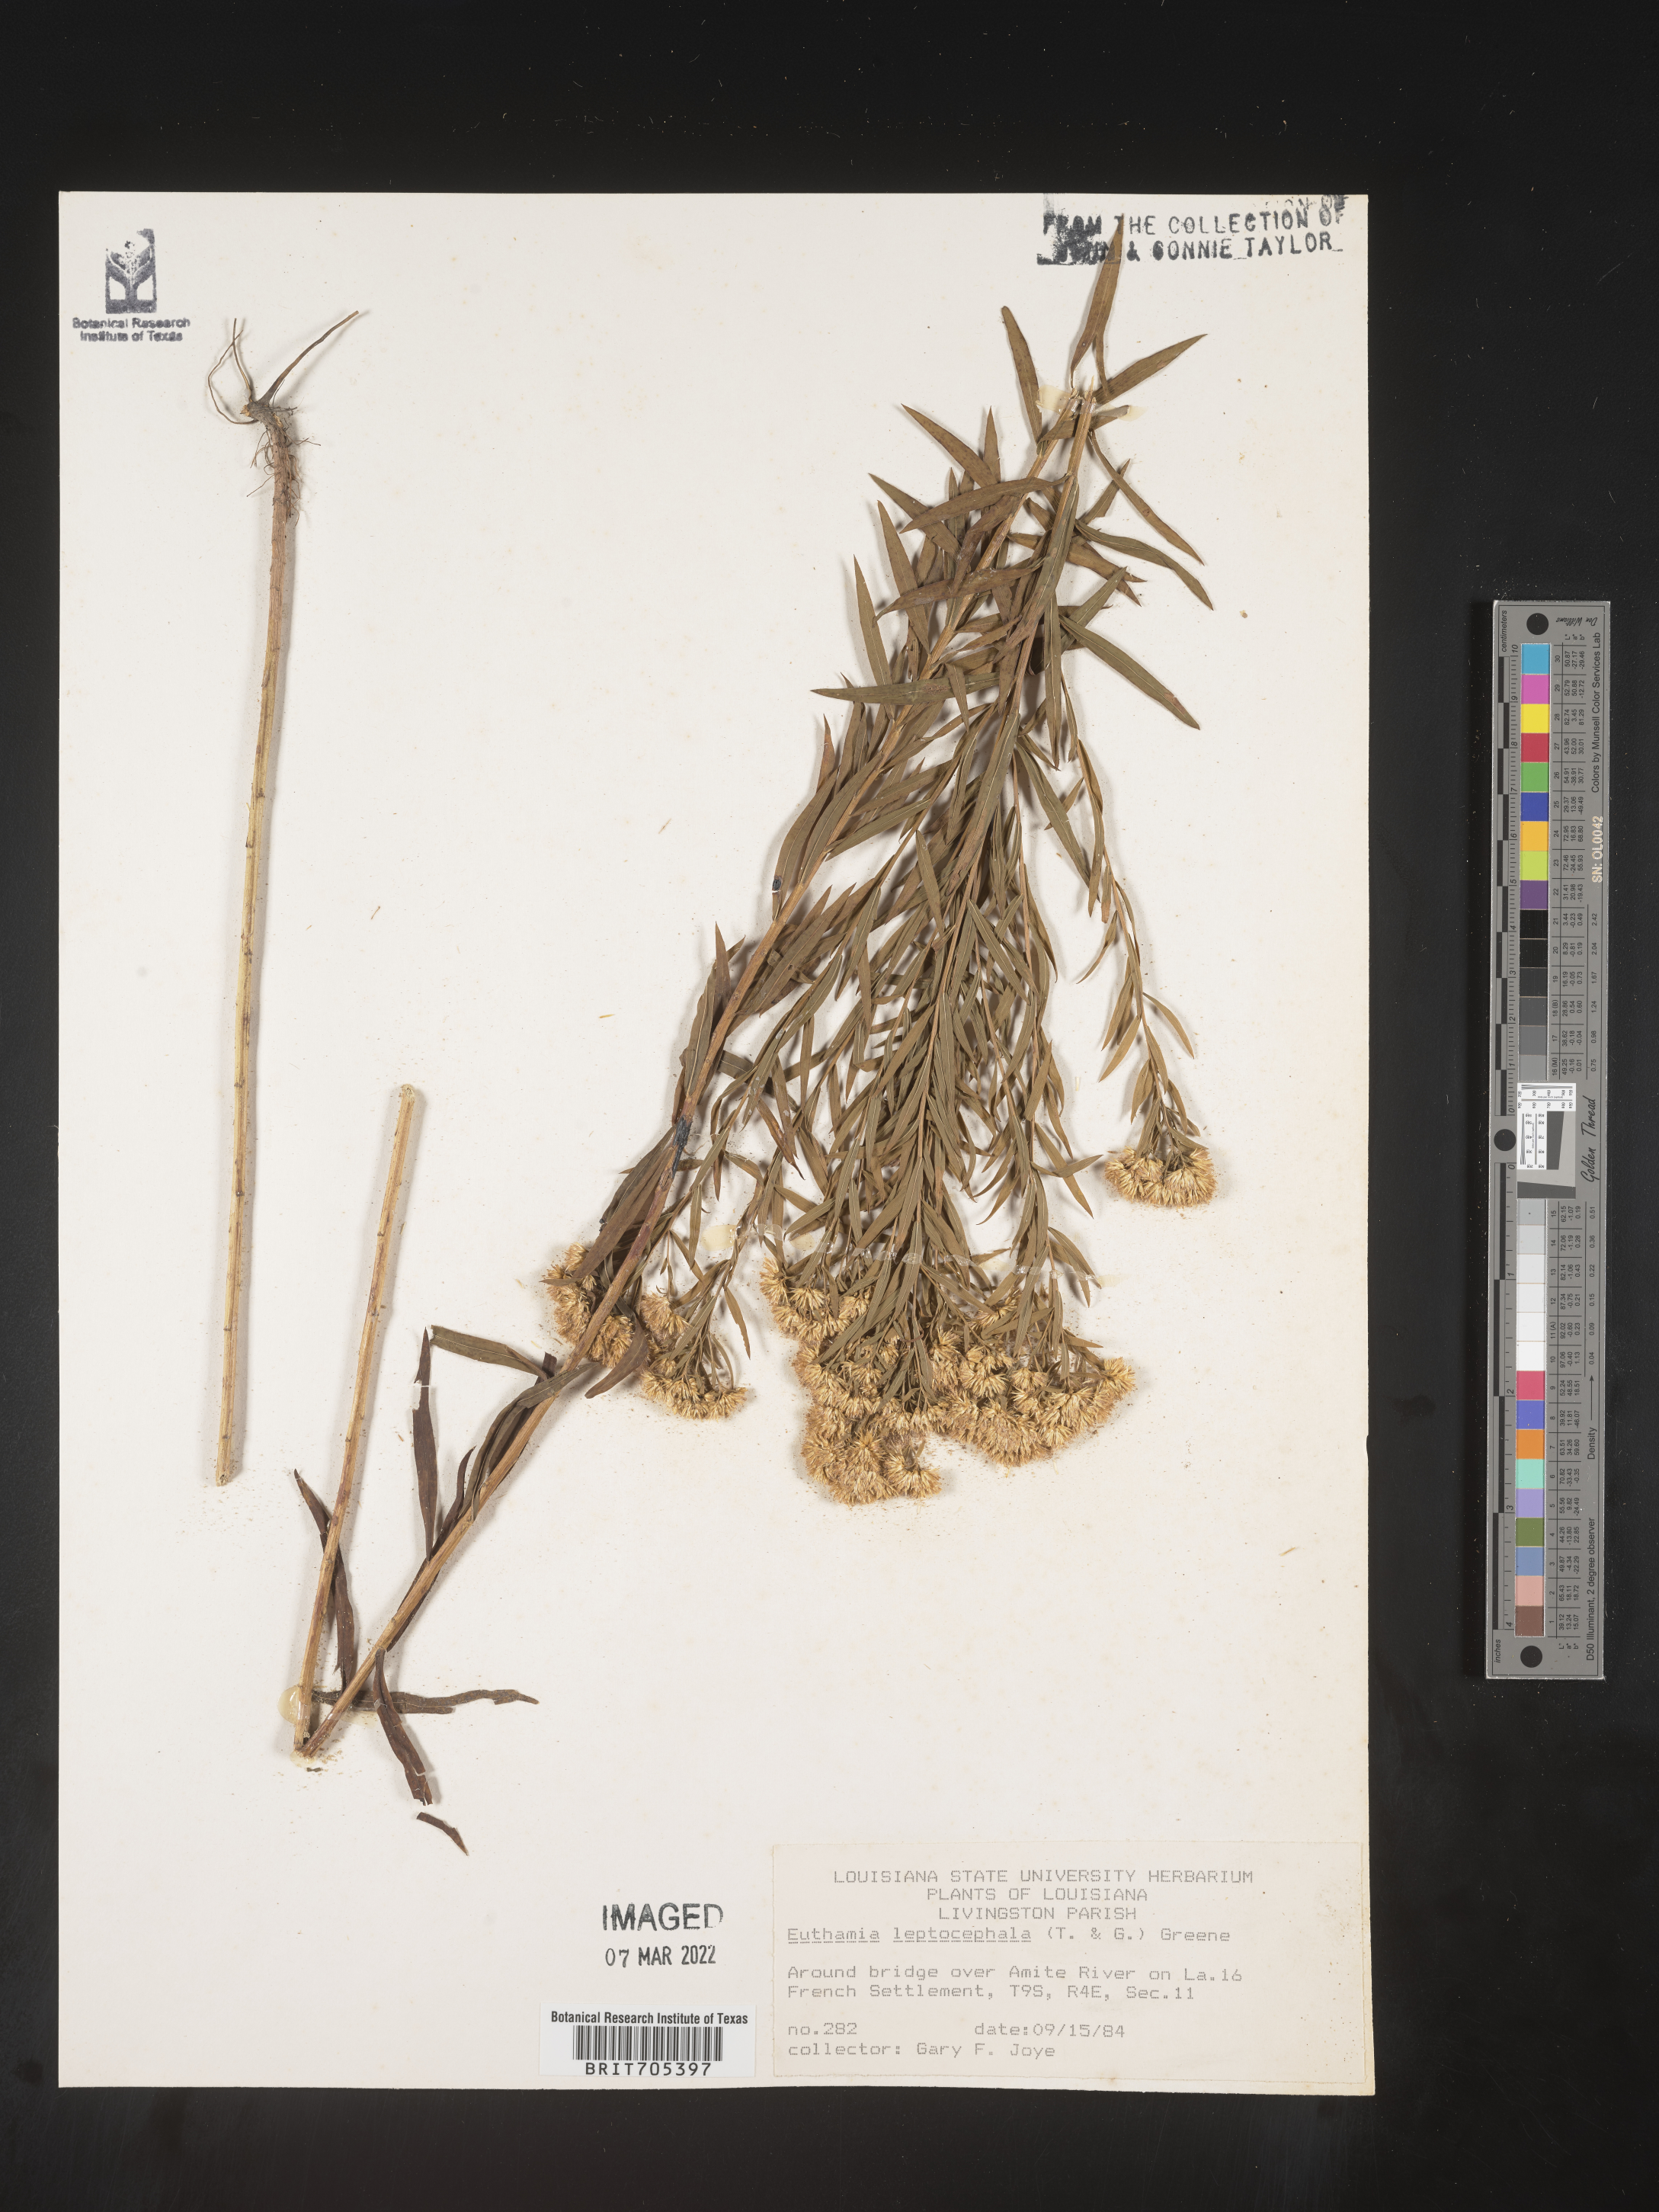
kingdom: Plantae
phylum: Tracheophyta
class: Magnoliopsida
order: Asterales
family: Asteraceae
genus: Euthamia
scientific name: Euthamia leptocephala
